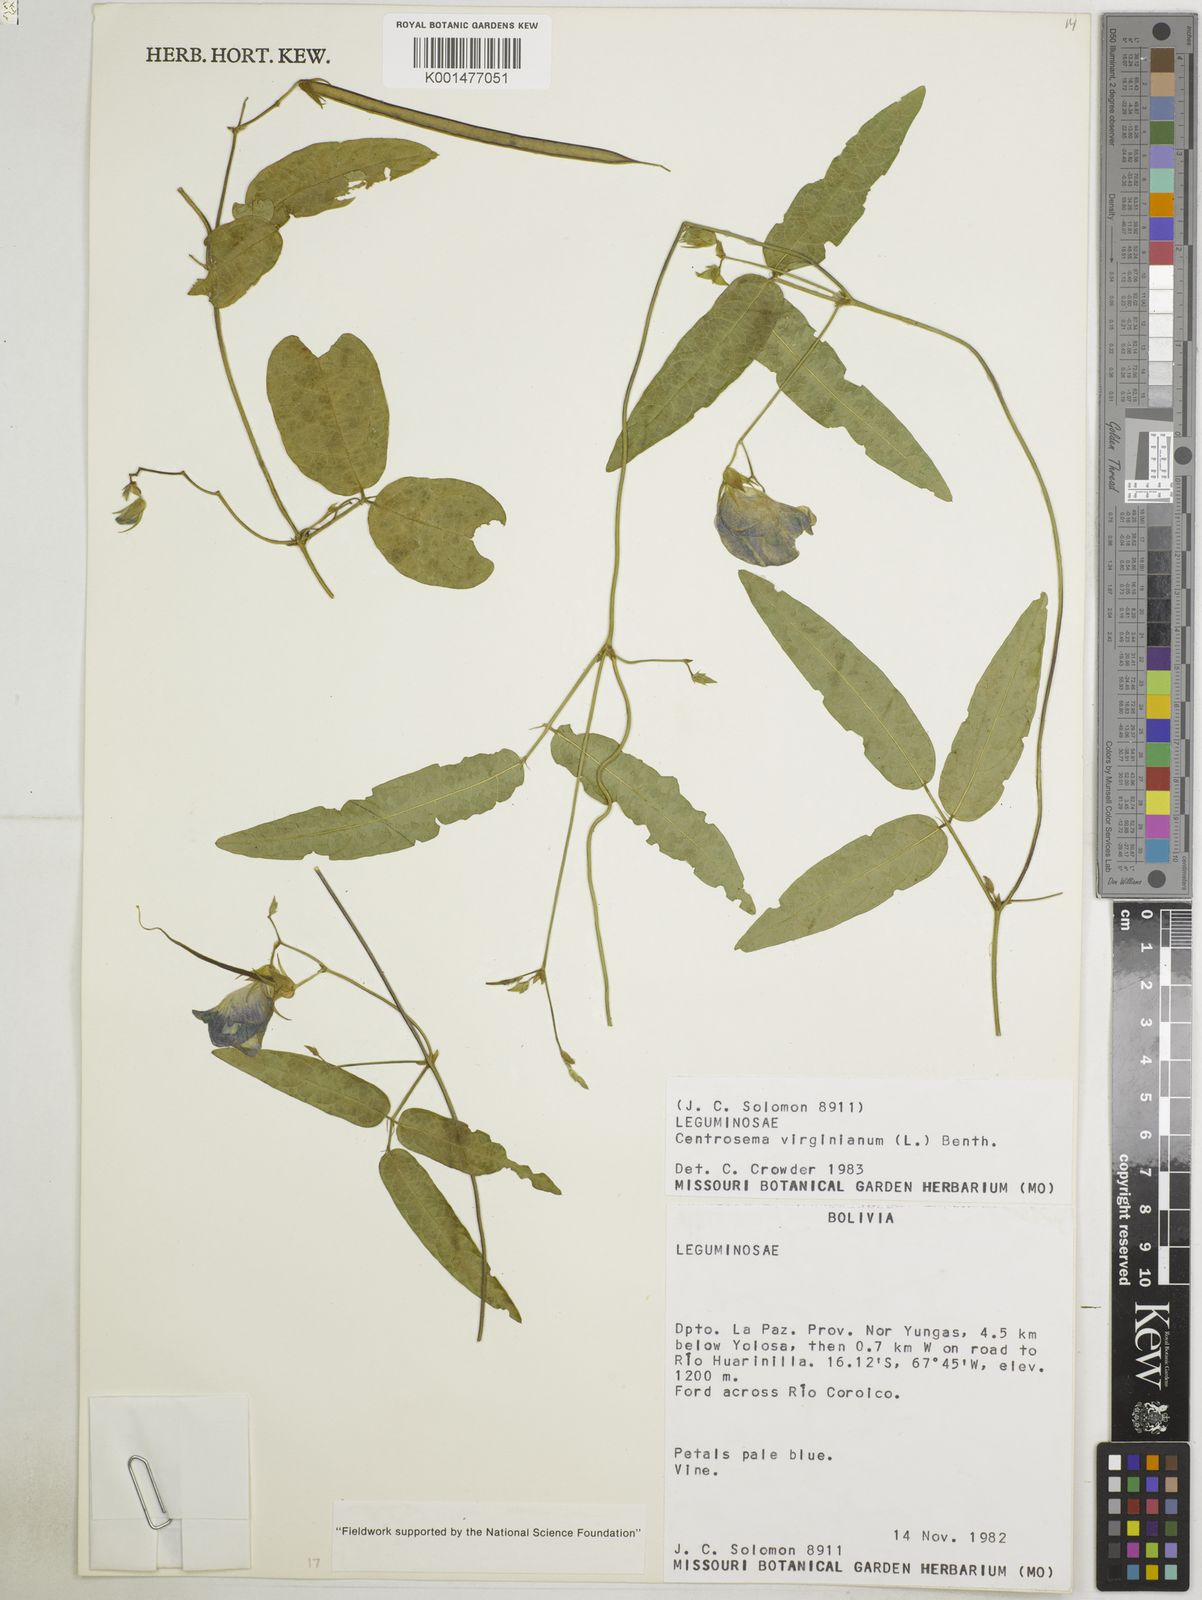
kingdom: Plantae
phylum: Tracheophyta
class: Magnoliopsida
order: Fabales
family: Fabaceae
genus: Centrosema
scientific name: Centrosema
